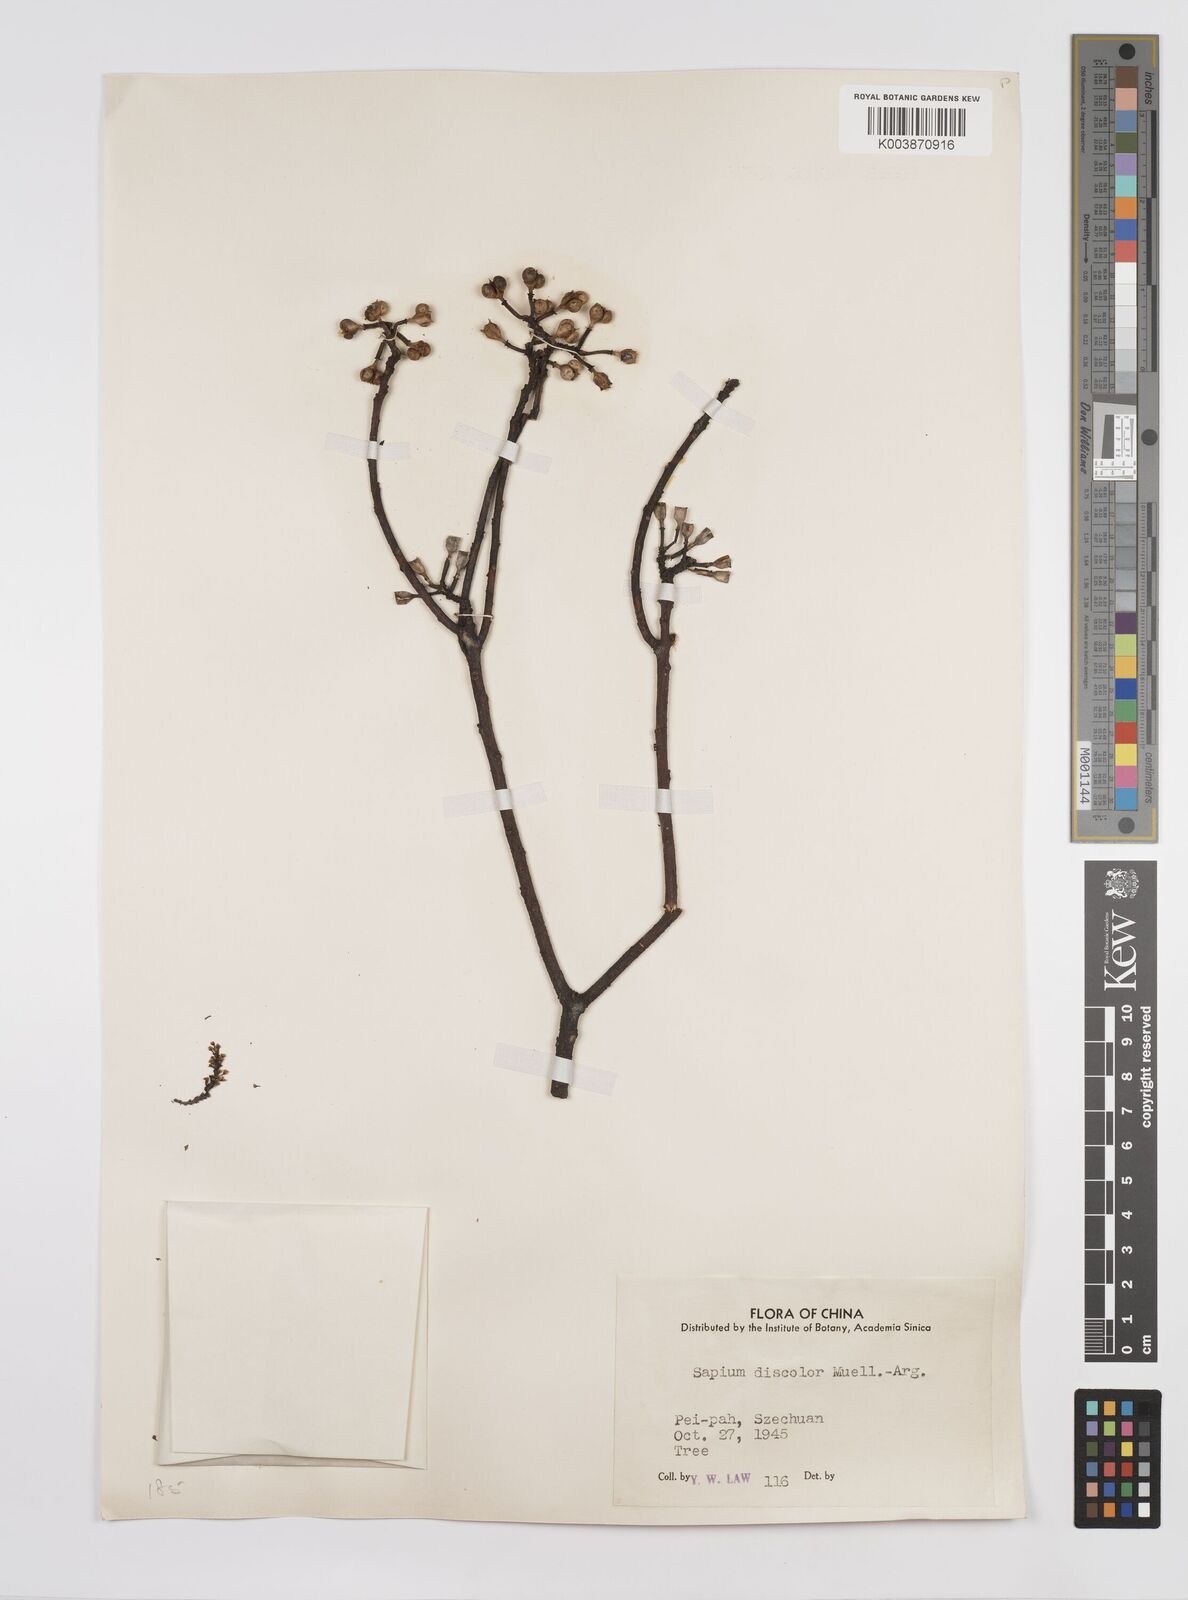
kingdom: Plantae
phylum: Tracheophyta
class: Magnoliopsida
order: Malpighiales
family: Euphorbiaceae
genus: Triadica
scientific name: Triadica cochinchinensis
